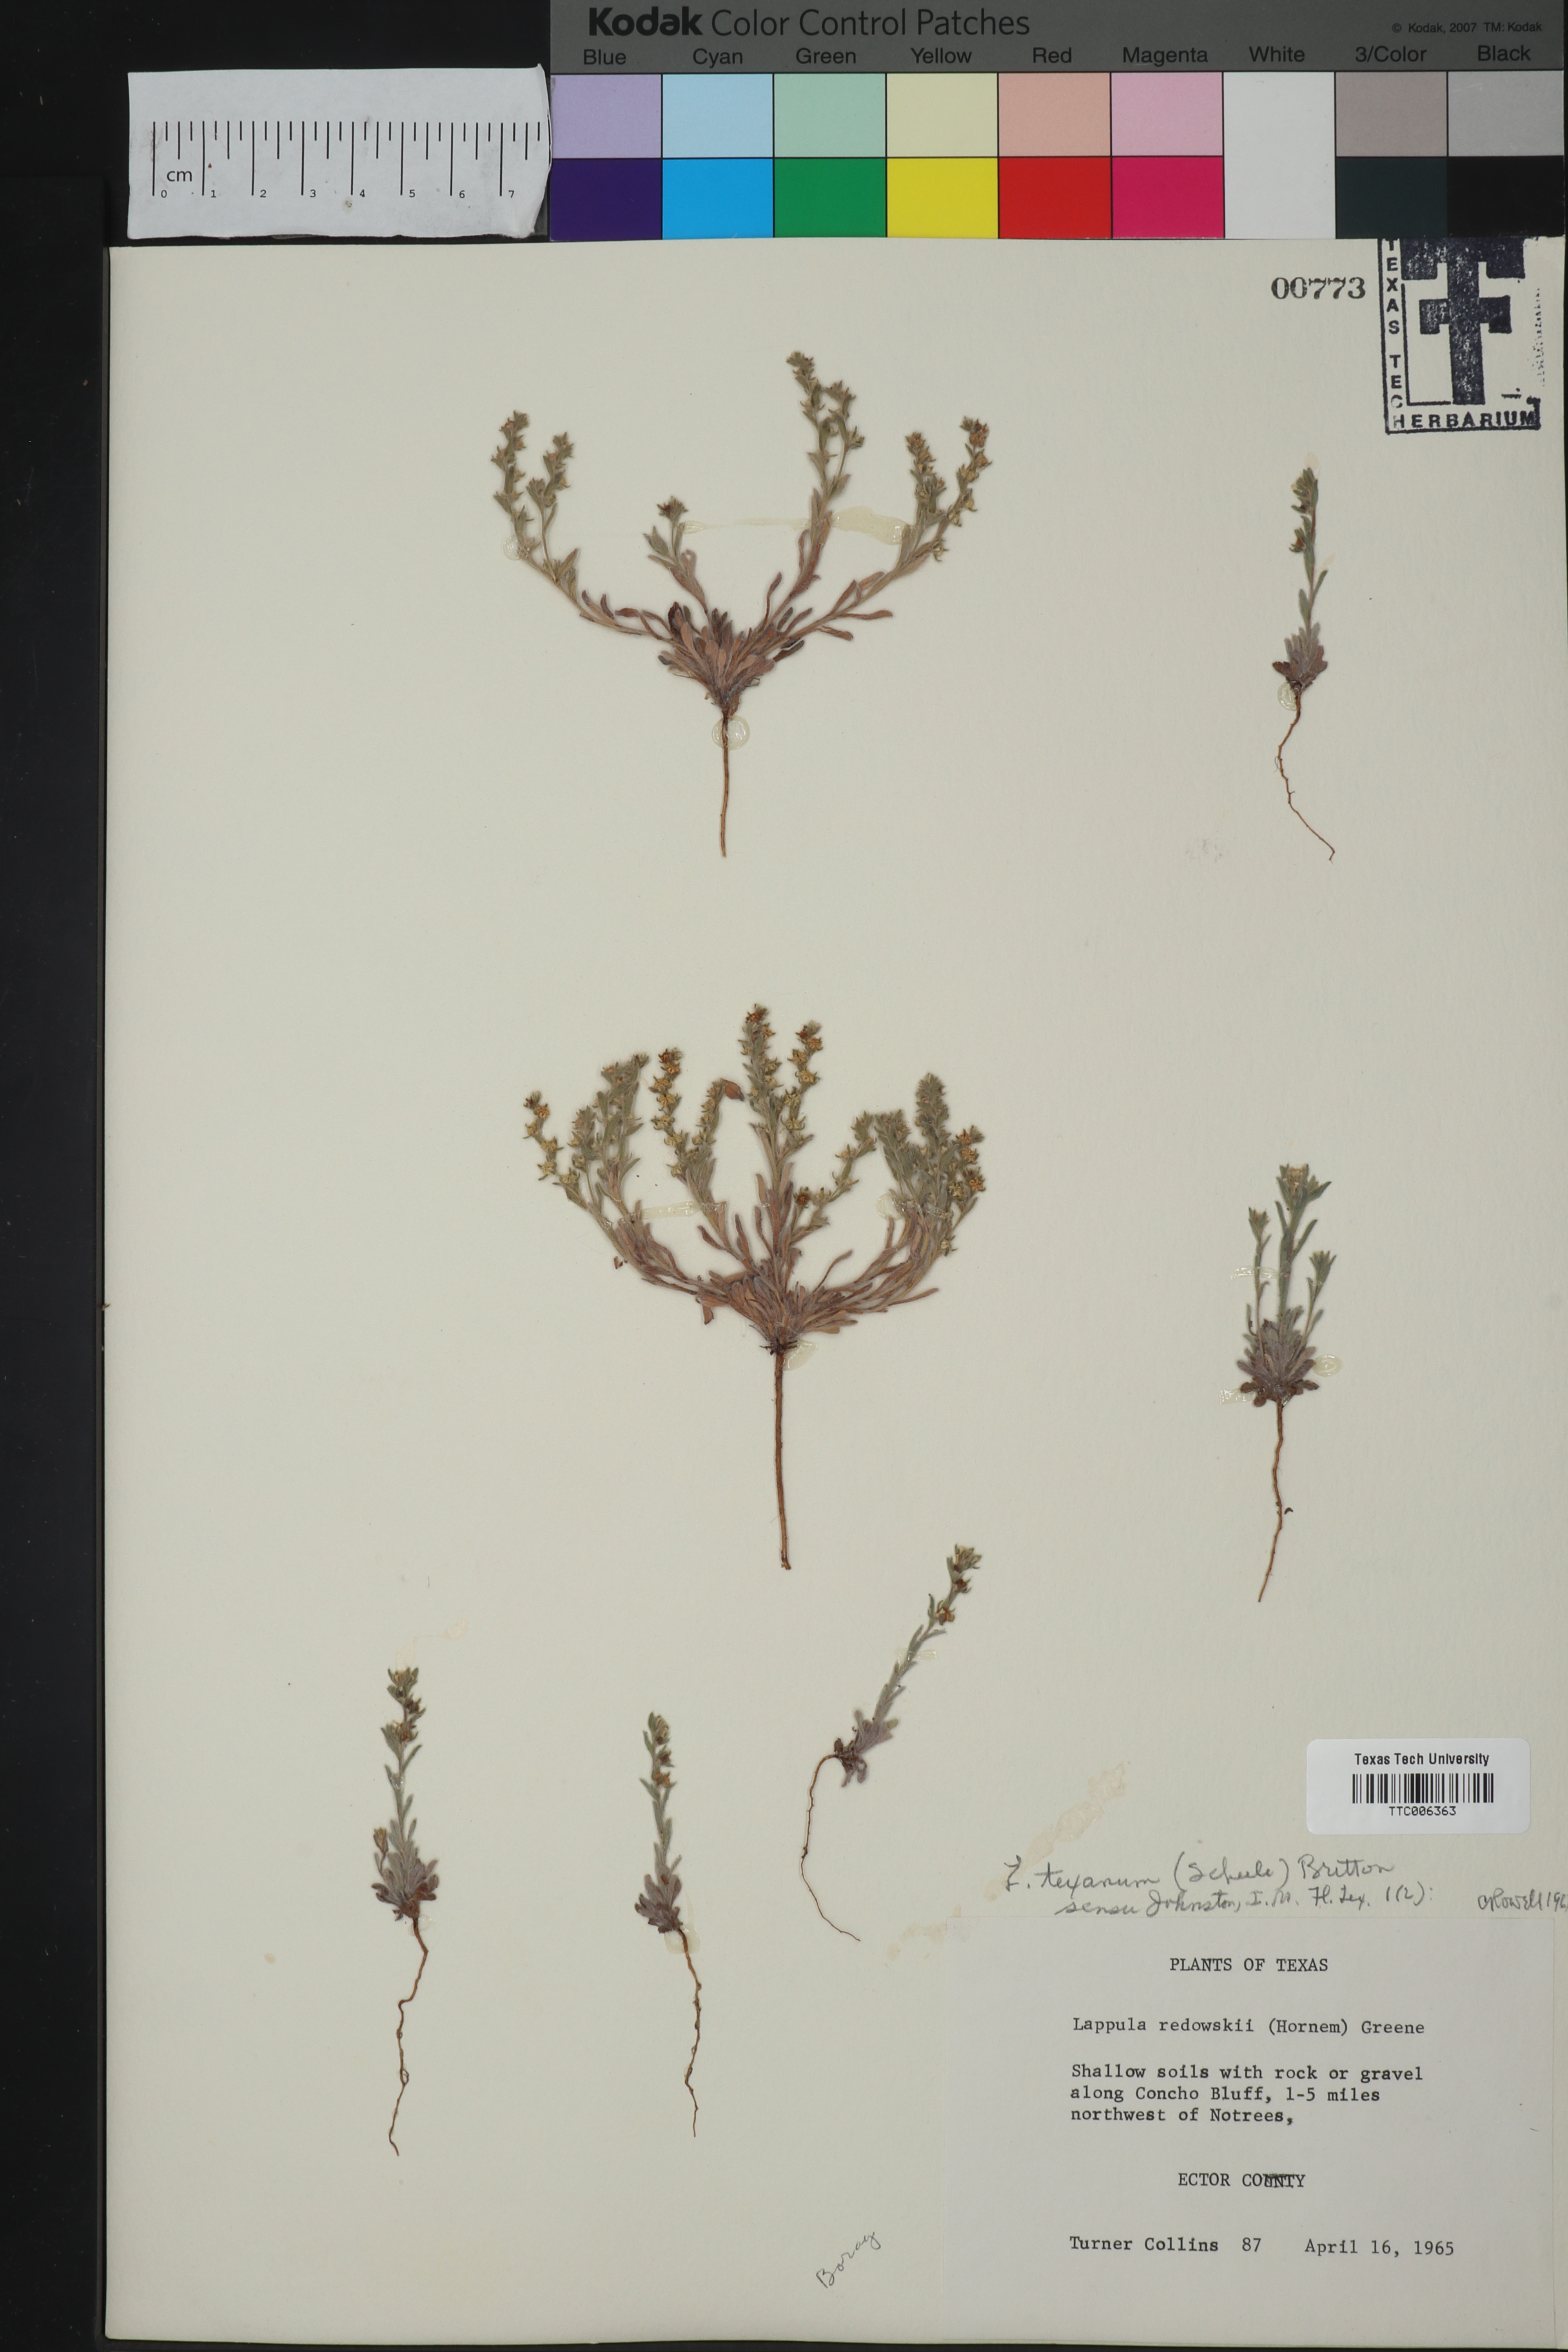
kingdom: Plantae
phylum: Tracheophyta
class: Magnoliopsida
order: Boraginales
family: Boraginaceae
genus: Lappula
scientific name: Lappula occidentalis
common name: Western stickseed
